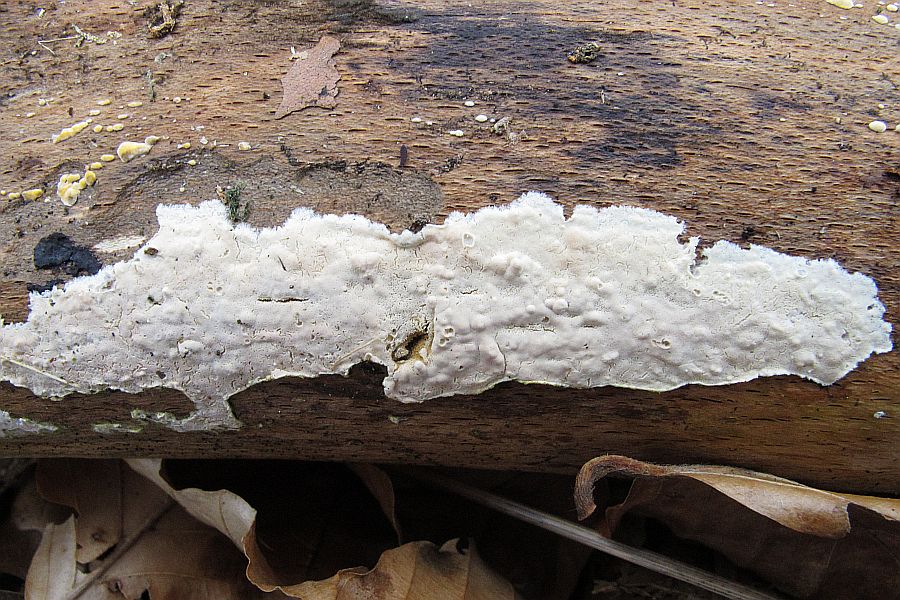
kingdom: Fungi
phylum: Basidiomycota
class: Agaricomycetes
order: Agaricales
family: Physalacriaceae
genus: Cylindrobasidium
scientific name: Cylindrobasidium evolvens
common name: sprækkehinde
